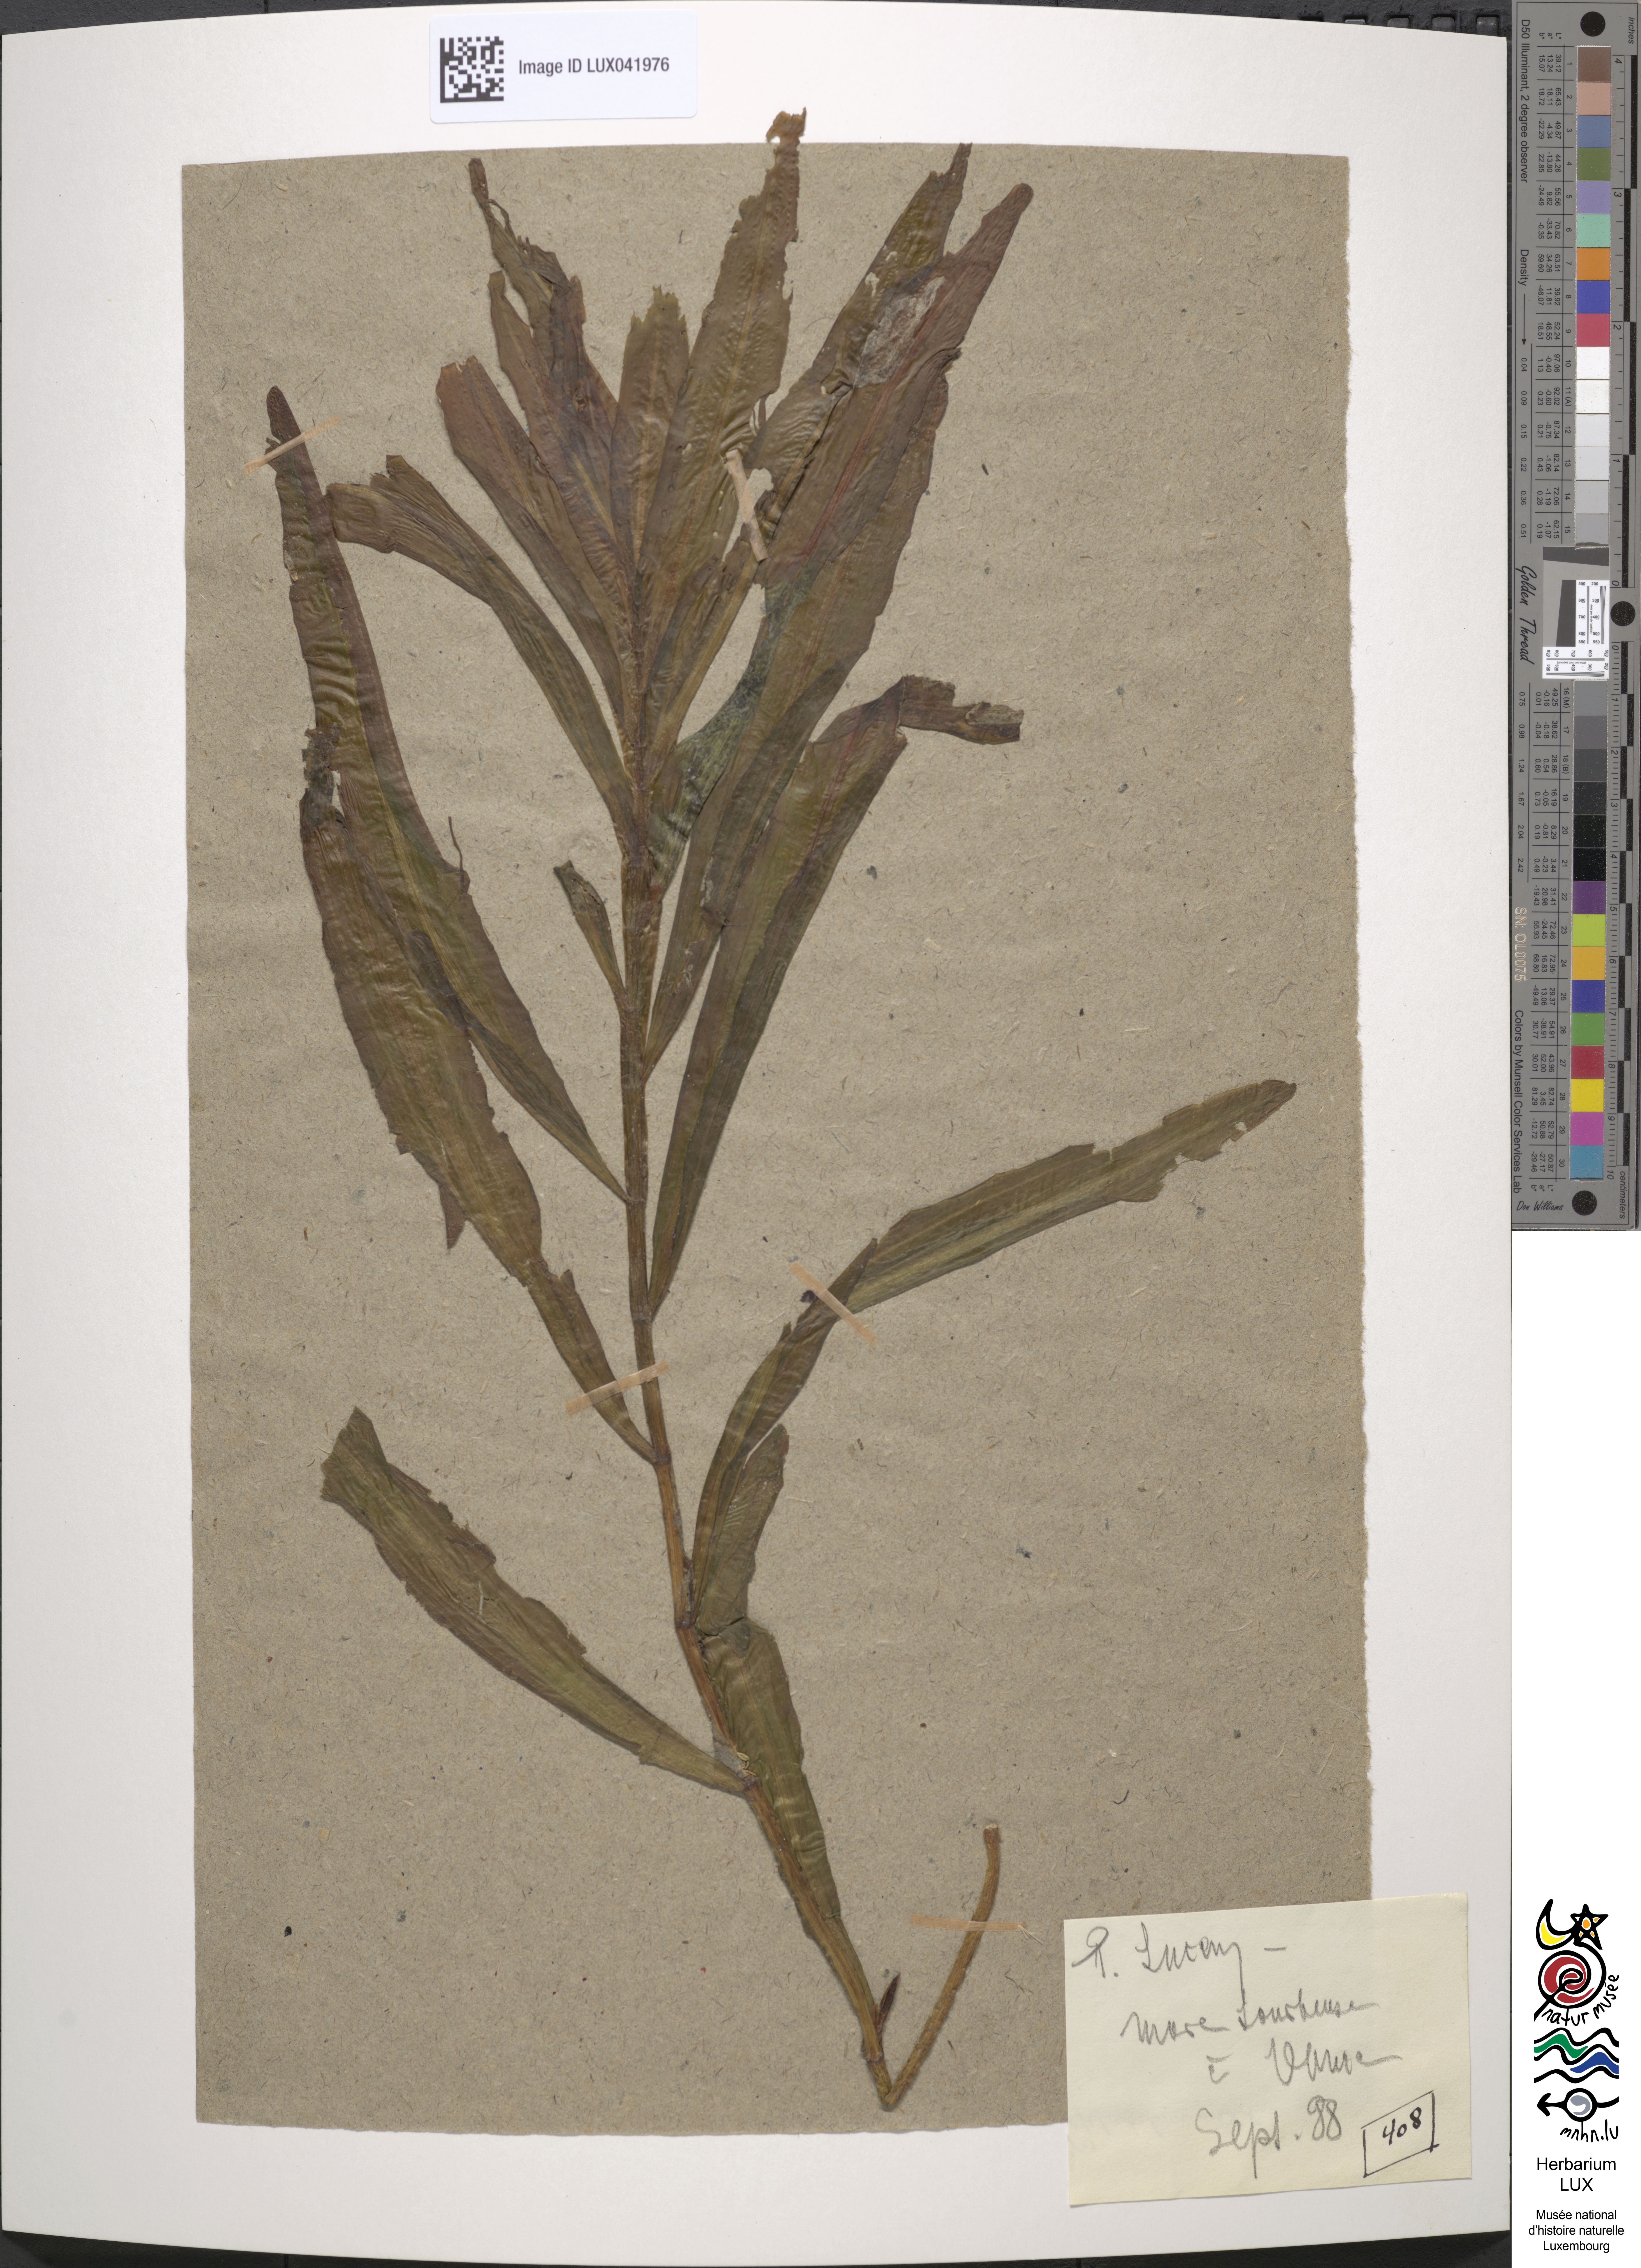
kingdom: Plantae
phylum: Tracheophyta
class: Liliopsida
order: Alismatales
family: Potamogetonaceae
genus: Potamogeton
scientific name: Potamogeton lucens
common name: Shining pondweed
